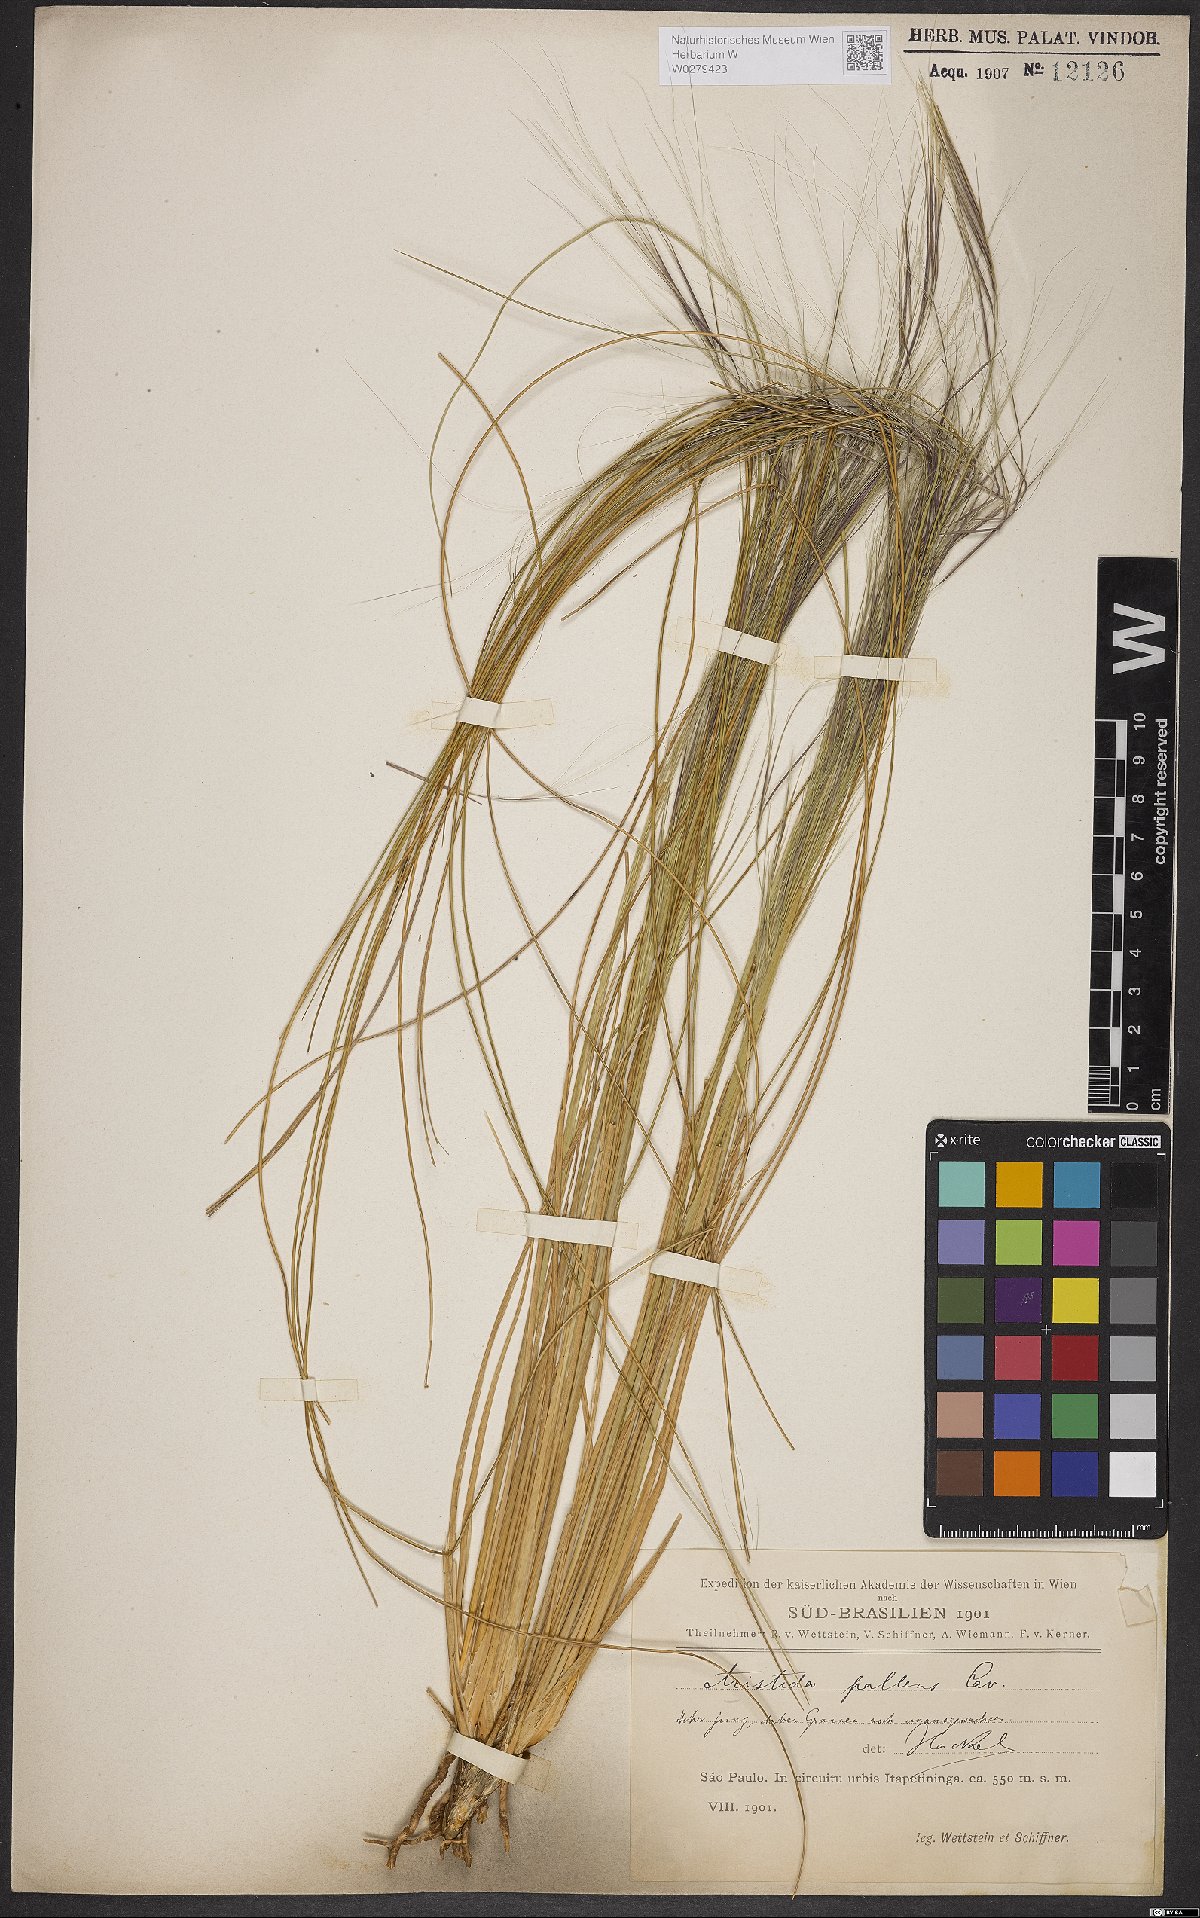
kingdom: Plantae
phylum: Tracheophyta
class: Liliopsida
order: Poales
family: Poaceae
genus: Aristida
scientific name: Aristida pallens
